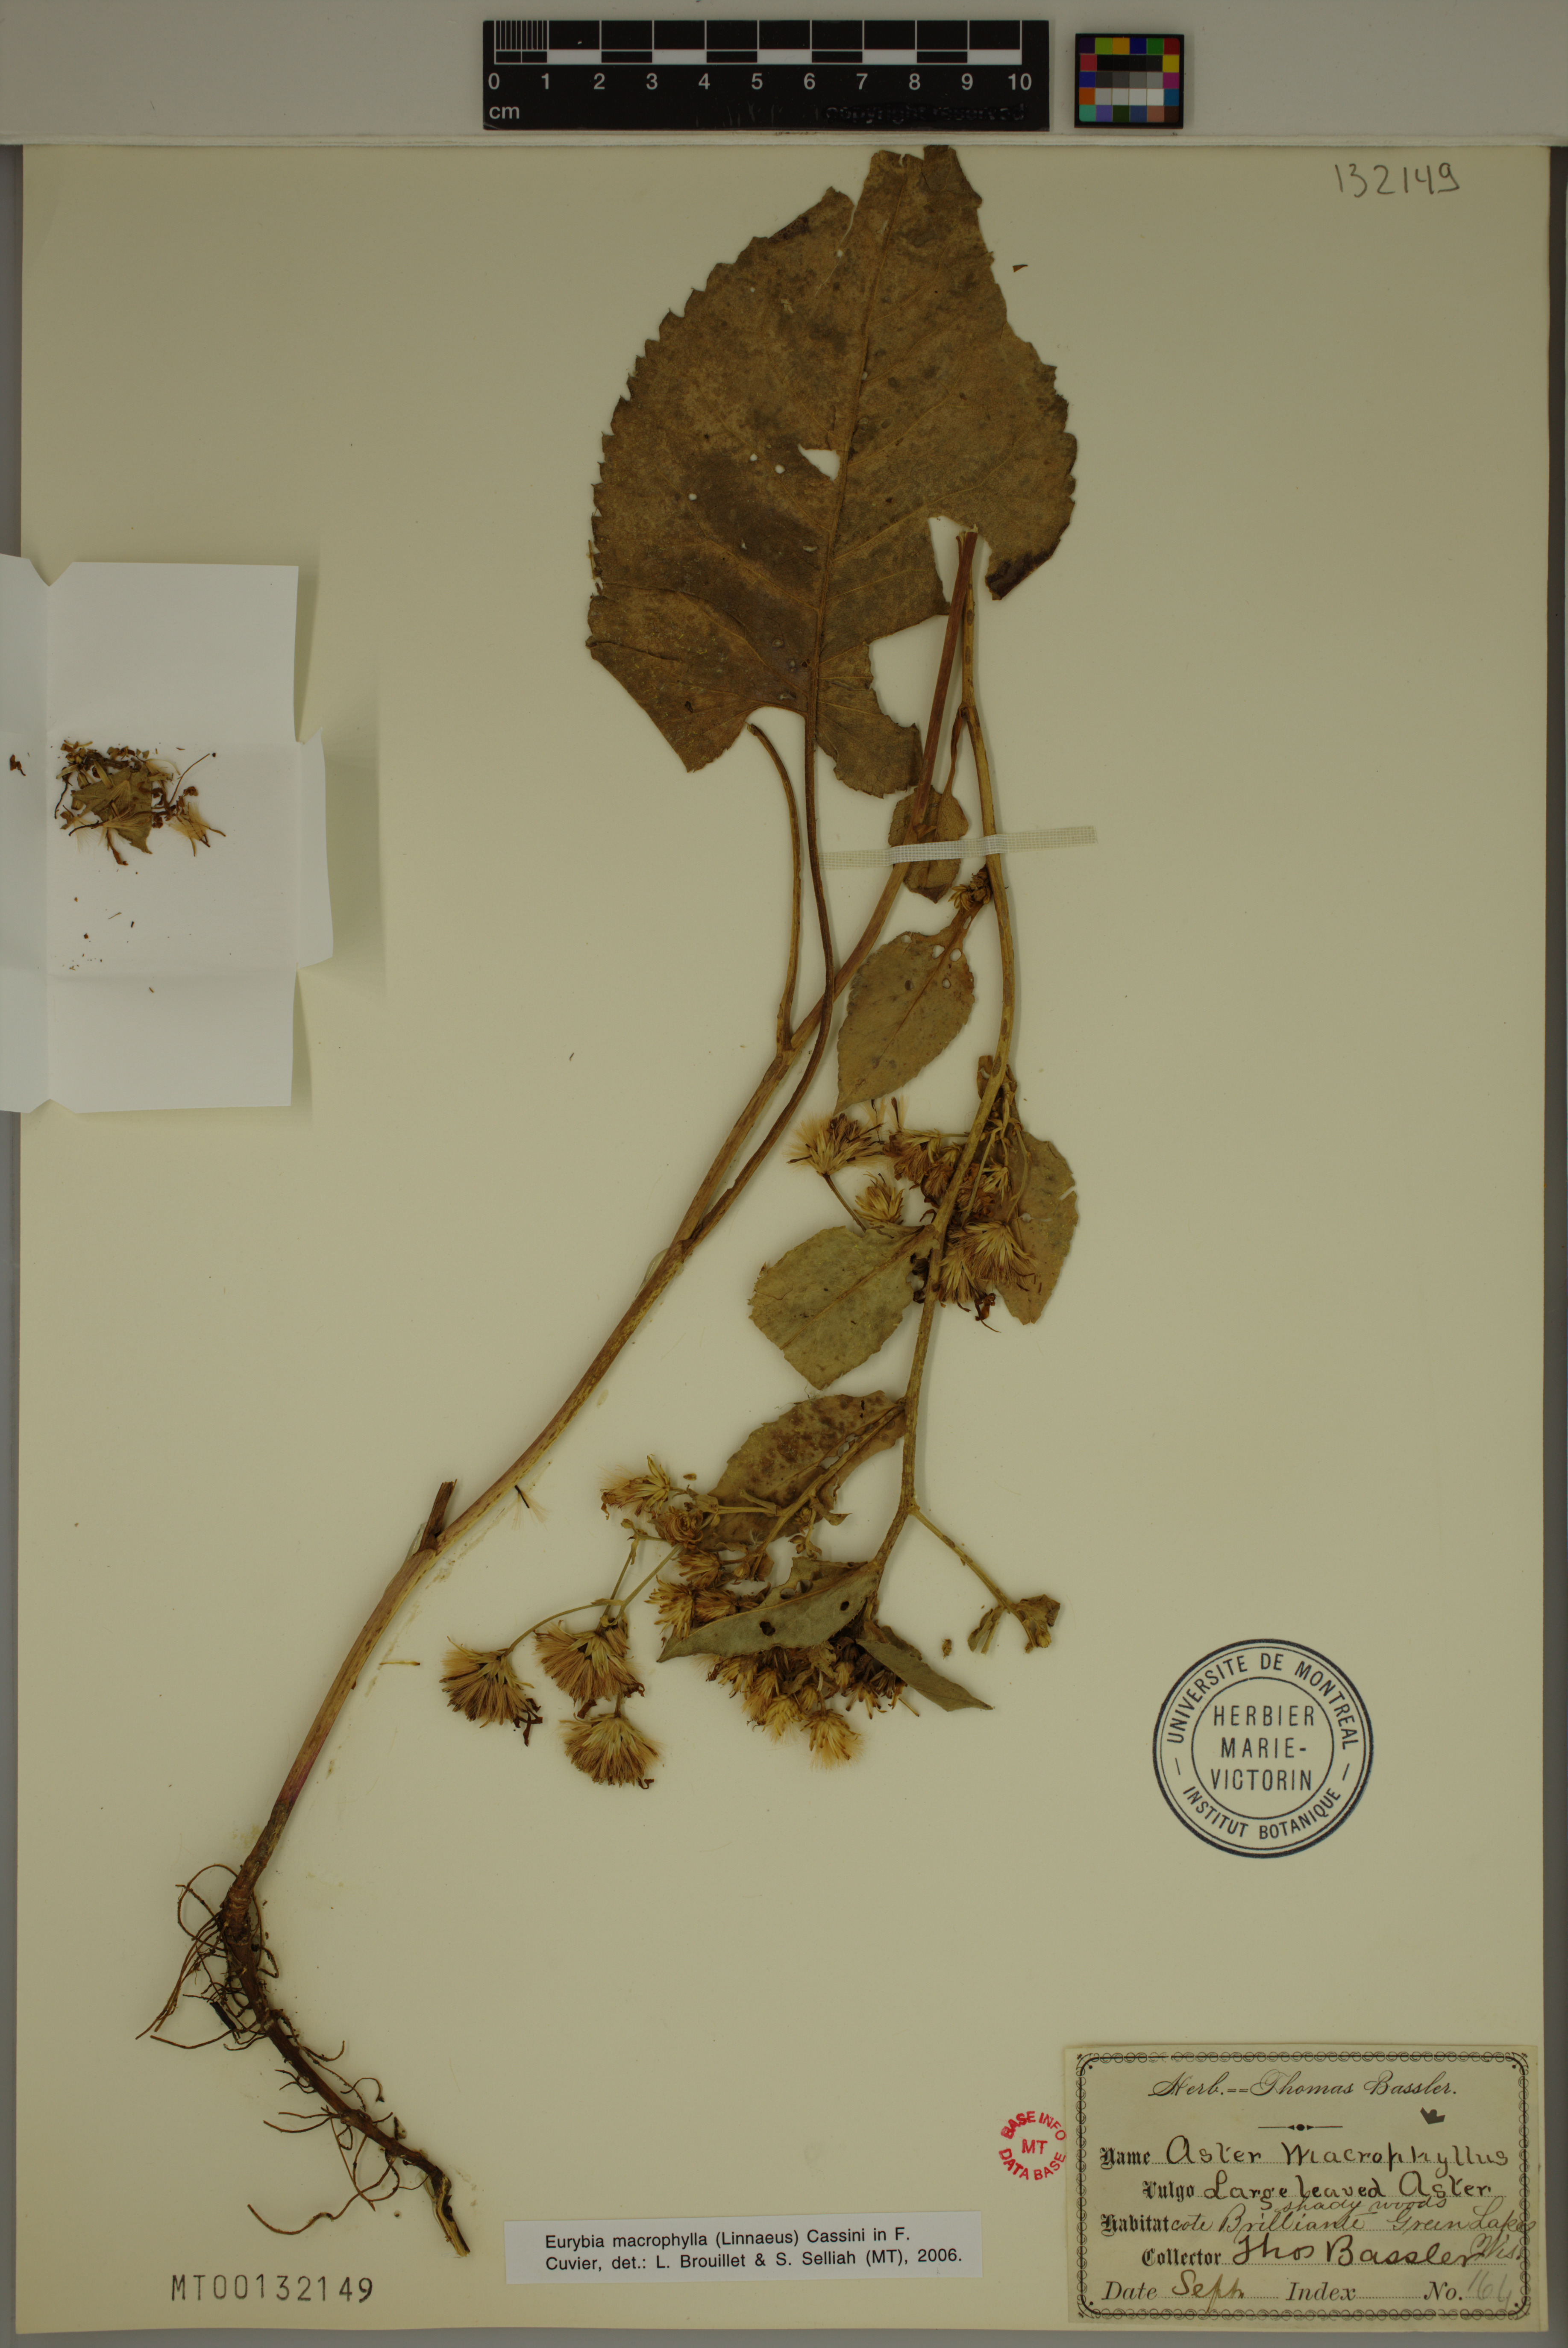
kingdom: Plantae
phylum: Tracheophyta
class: Magnoliopsida
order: Asterales
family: Asteraceae
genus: Eurybia
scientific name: Eurybia macrophylla
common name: Big-leaved aster
